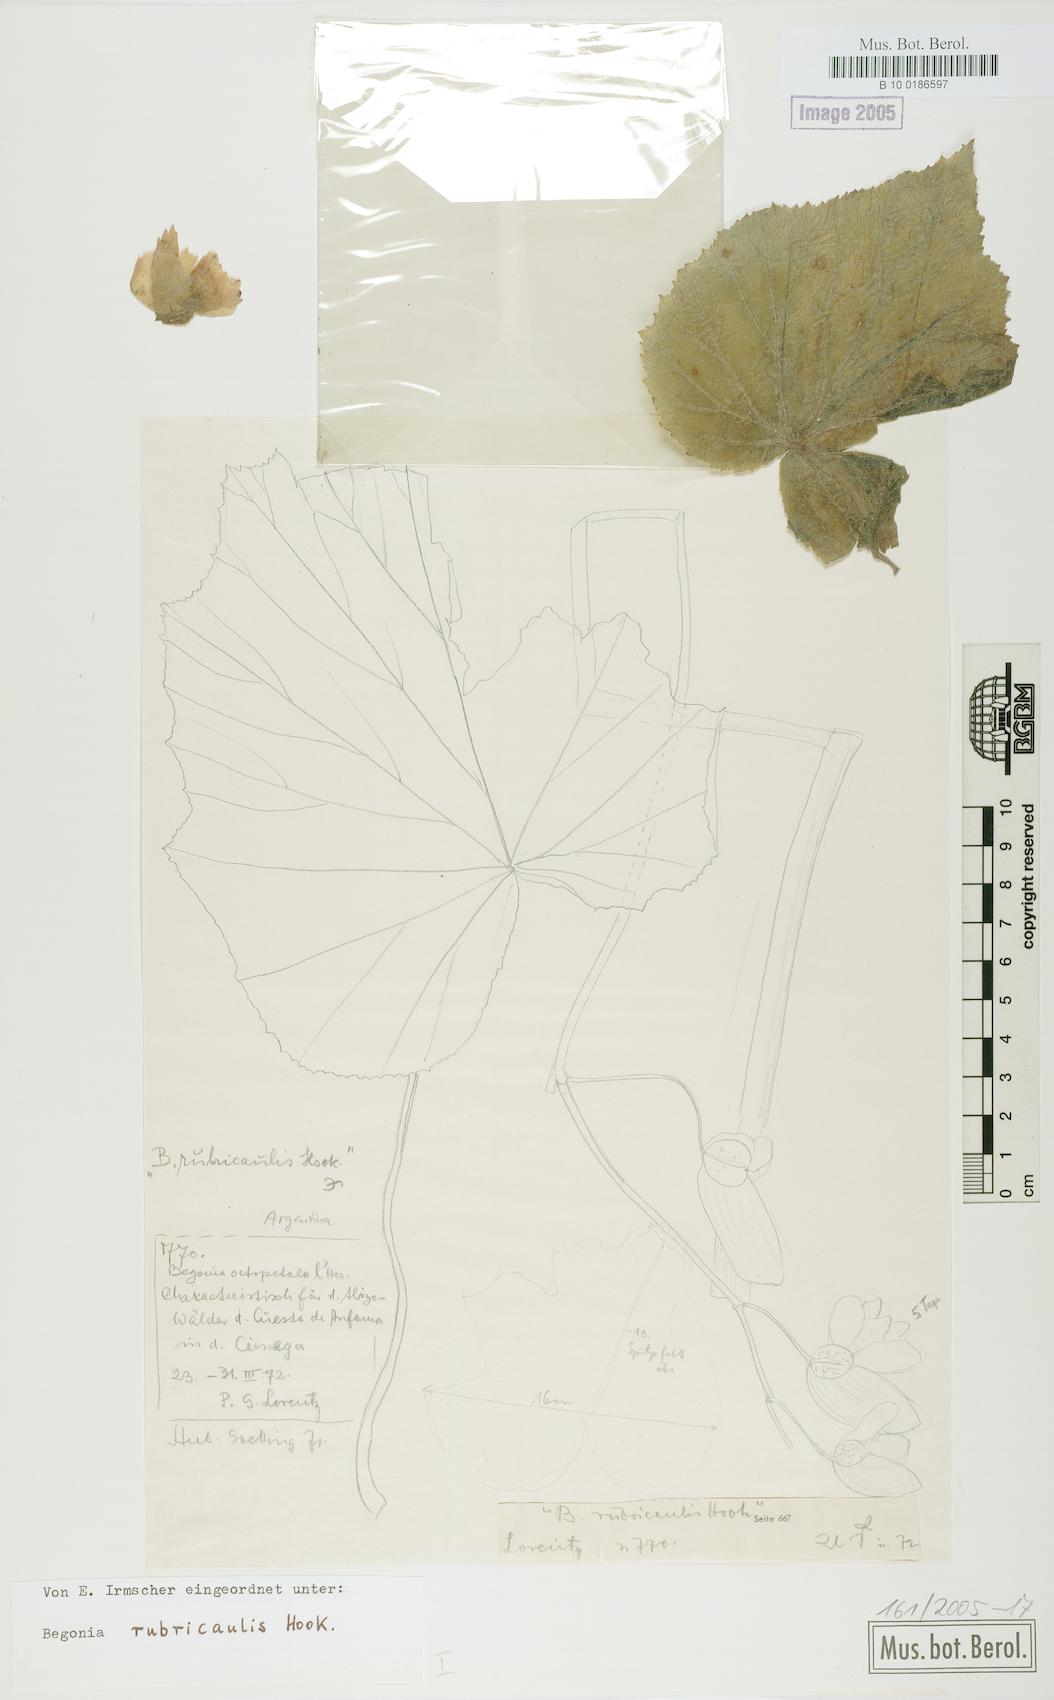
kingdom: Plantae
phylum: Tracheophyta
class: Magnoliopsida
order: Cucurbitales
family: Begoniaceae
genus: Begonia
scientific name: Begonia rubricaulis
